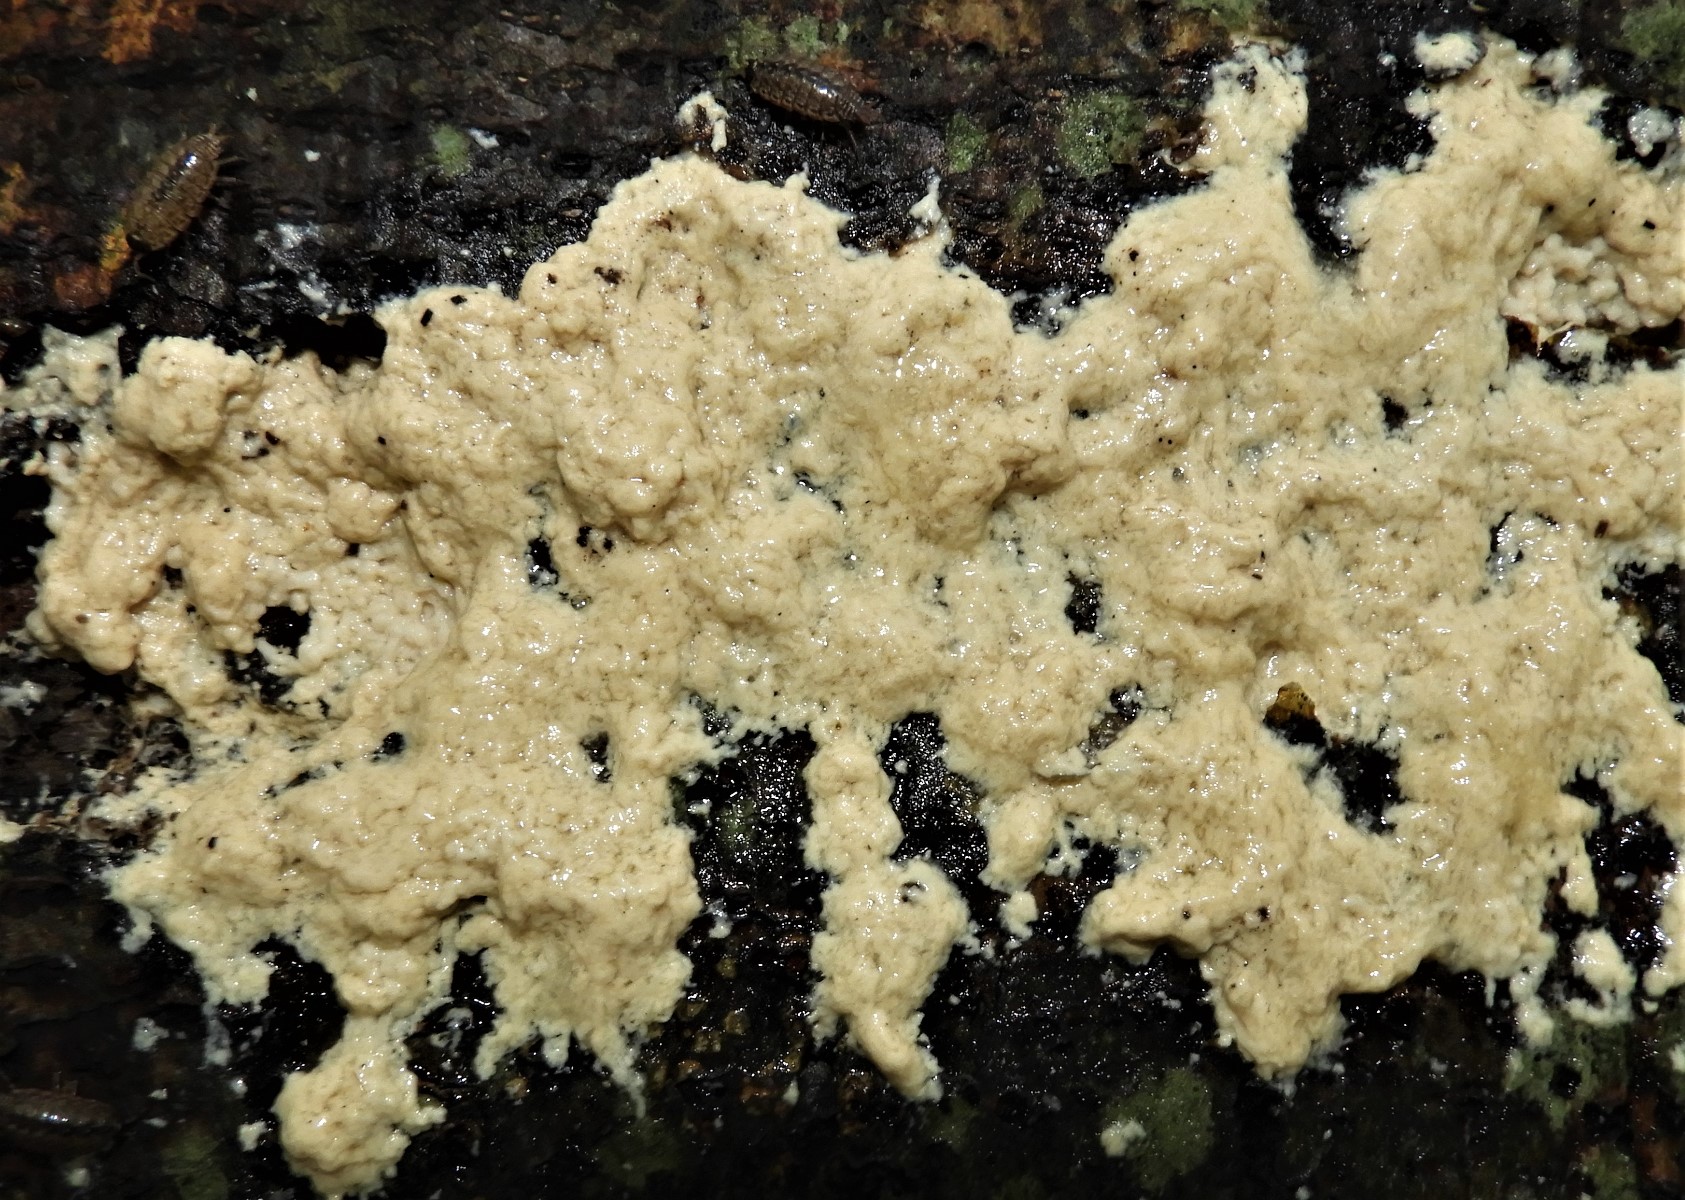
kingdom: Protozoa
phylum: Mycetozoa
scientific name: Mycetozoa
